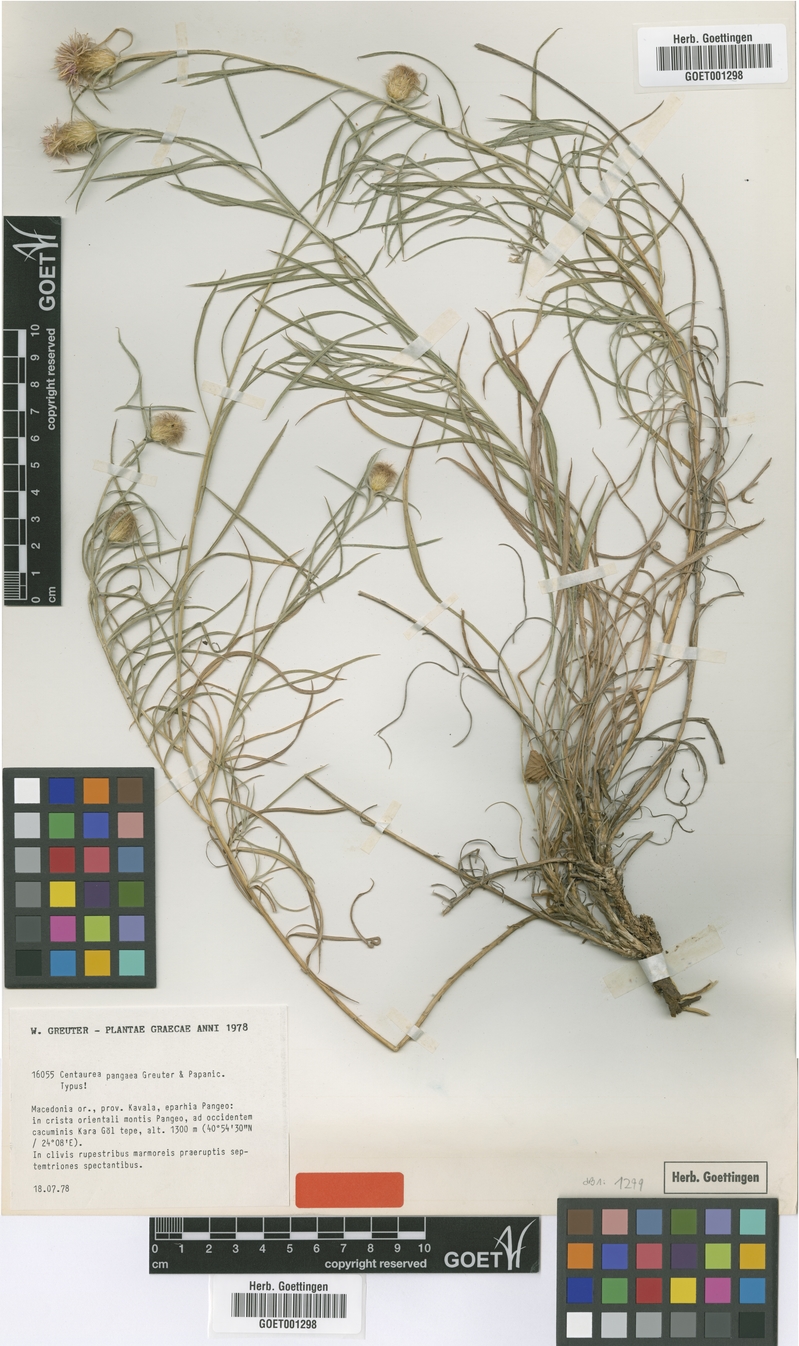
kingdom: Plantae
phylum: Tracheophyta
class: Magnoliopsida
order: Asterales
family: Asteraceae
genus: Centaurea
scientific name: Centaurea pangaea
